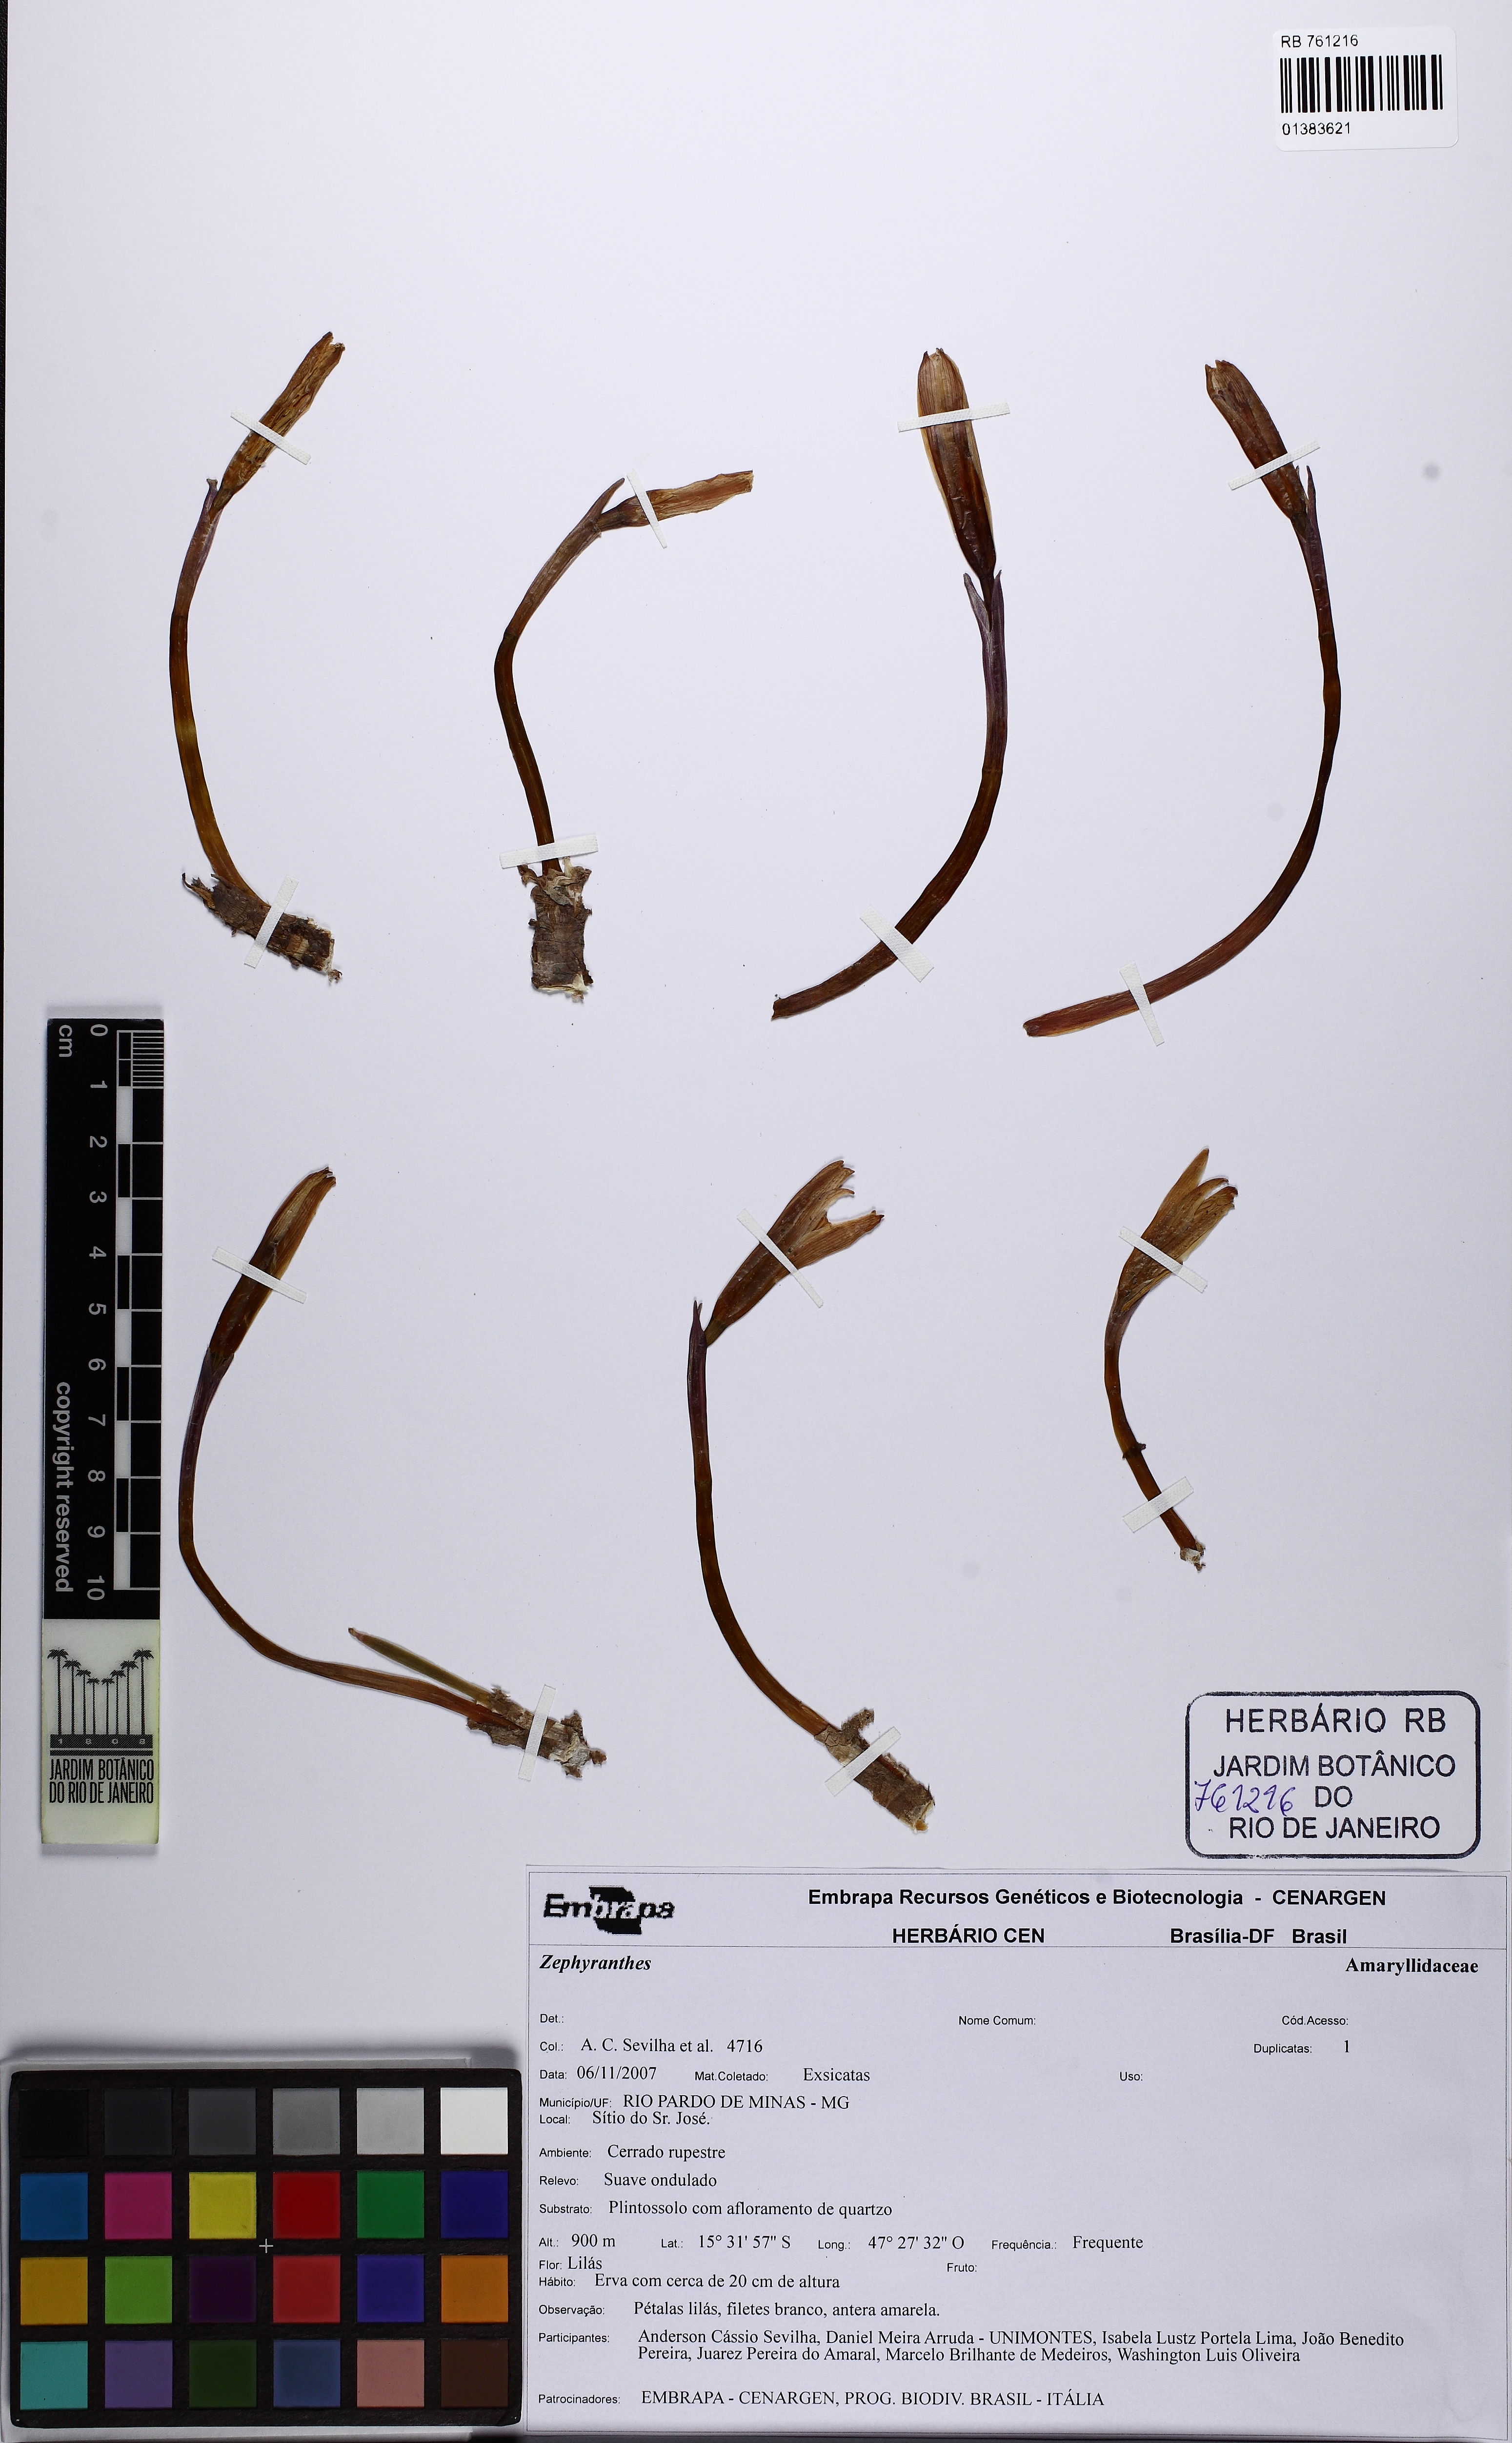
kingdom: Plantae
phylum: Tracheophyta
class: Liliopsida
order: Asparagales
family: Amaryllidaceae
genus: Zephyranthes
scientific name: Zephyranthes
